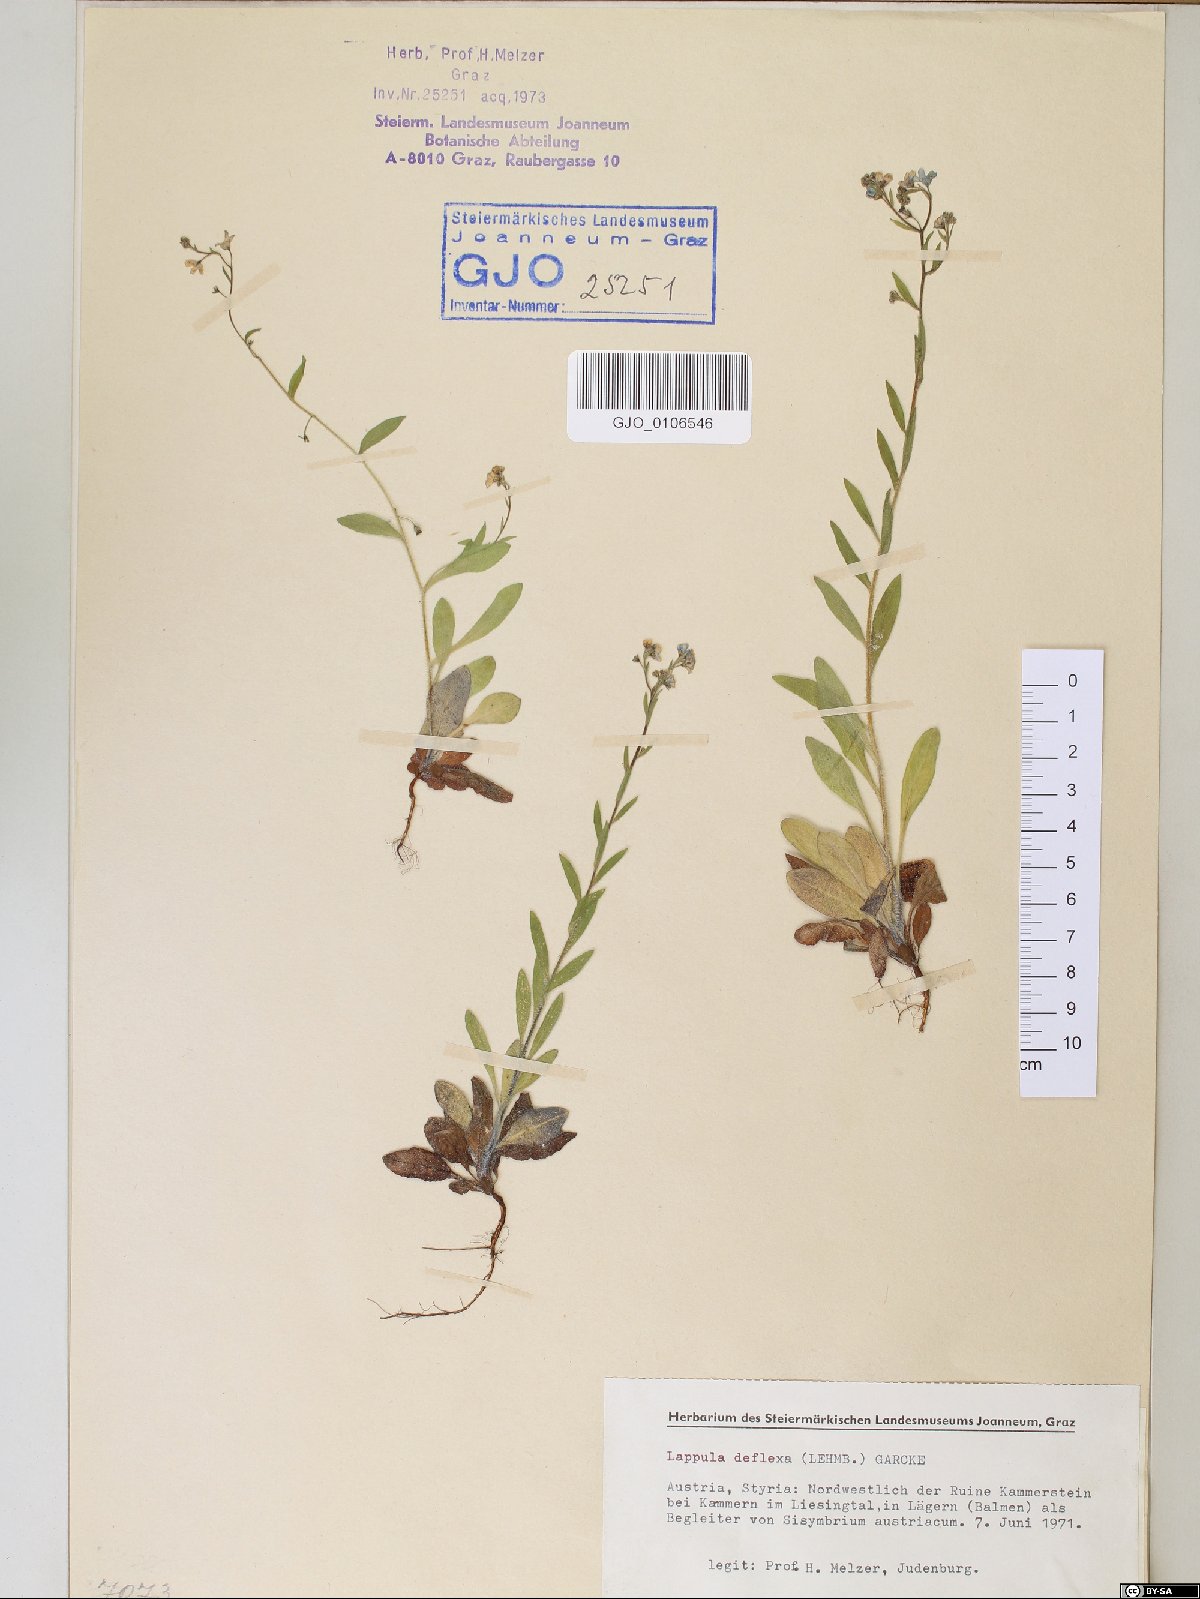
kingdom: Plantae
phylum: Tracheophyta
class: Magnoliopsida
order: Boraginales
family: Boraginaceae
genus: Hackelia
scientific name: Hackelia deflexa
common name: Nodding stickseed
